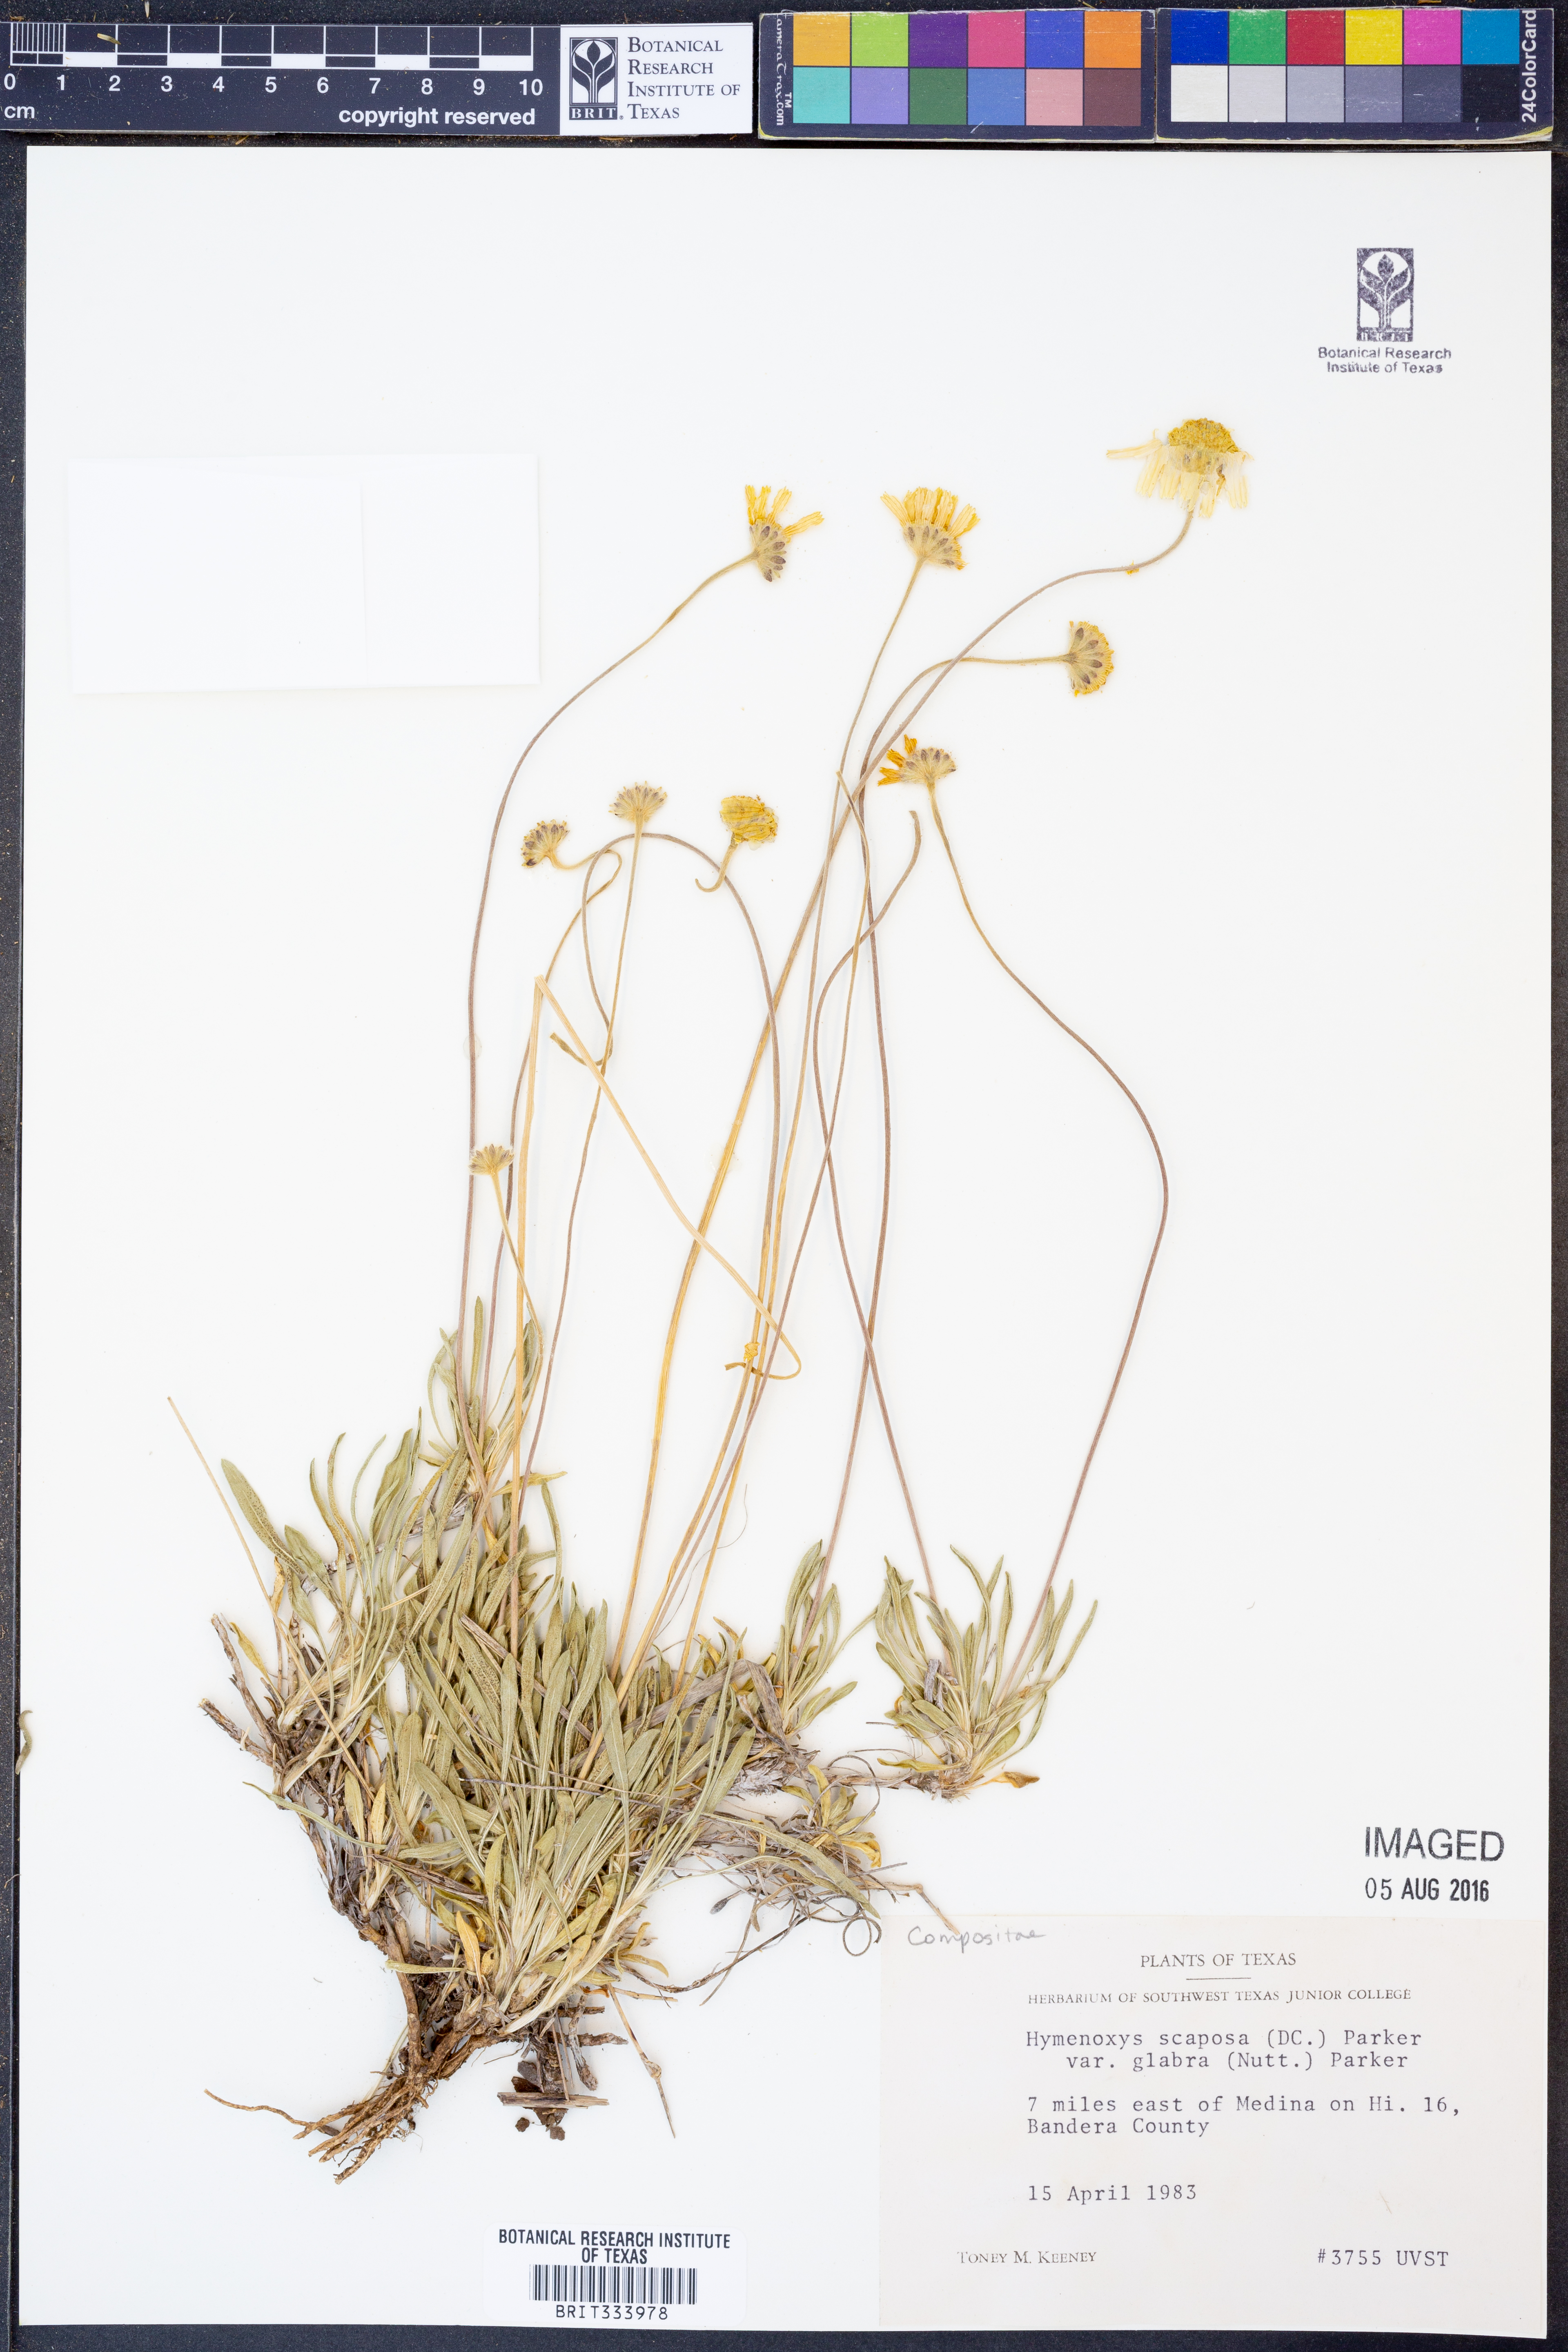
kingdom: Plantae
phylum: Tracheophyta
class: Magnoliopsida
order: Asterales
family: Asteraceae
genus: Tetraneuris
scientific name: Tetraneuris scaposa
